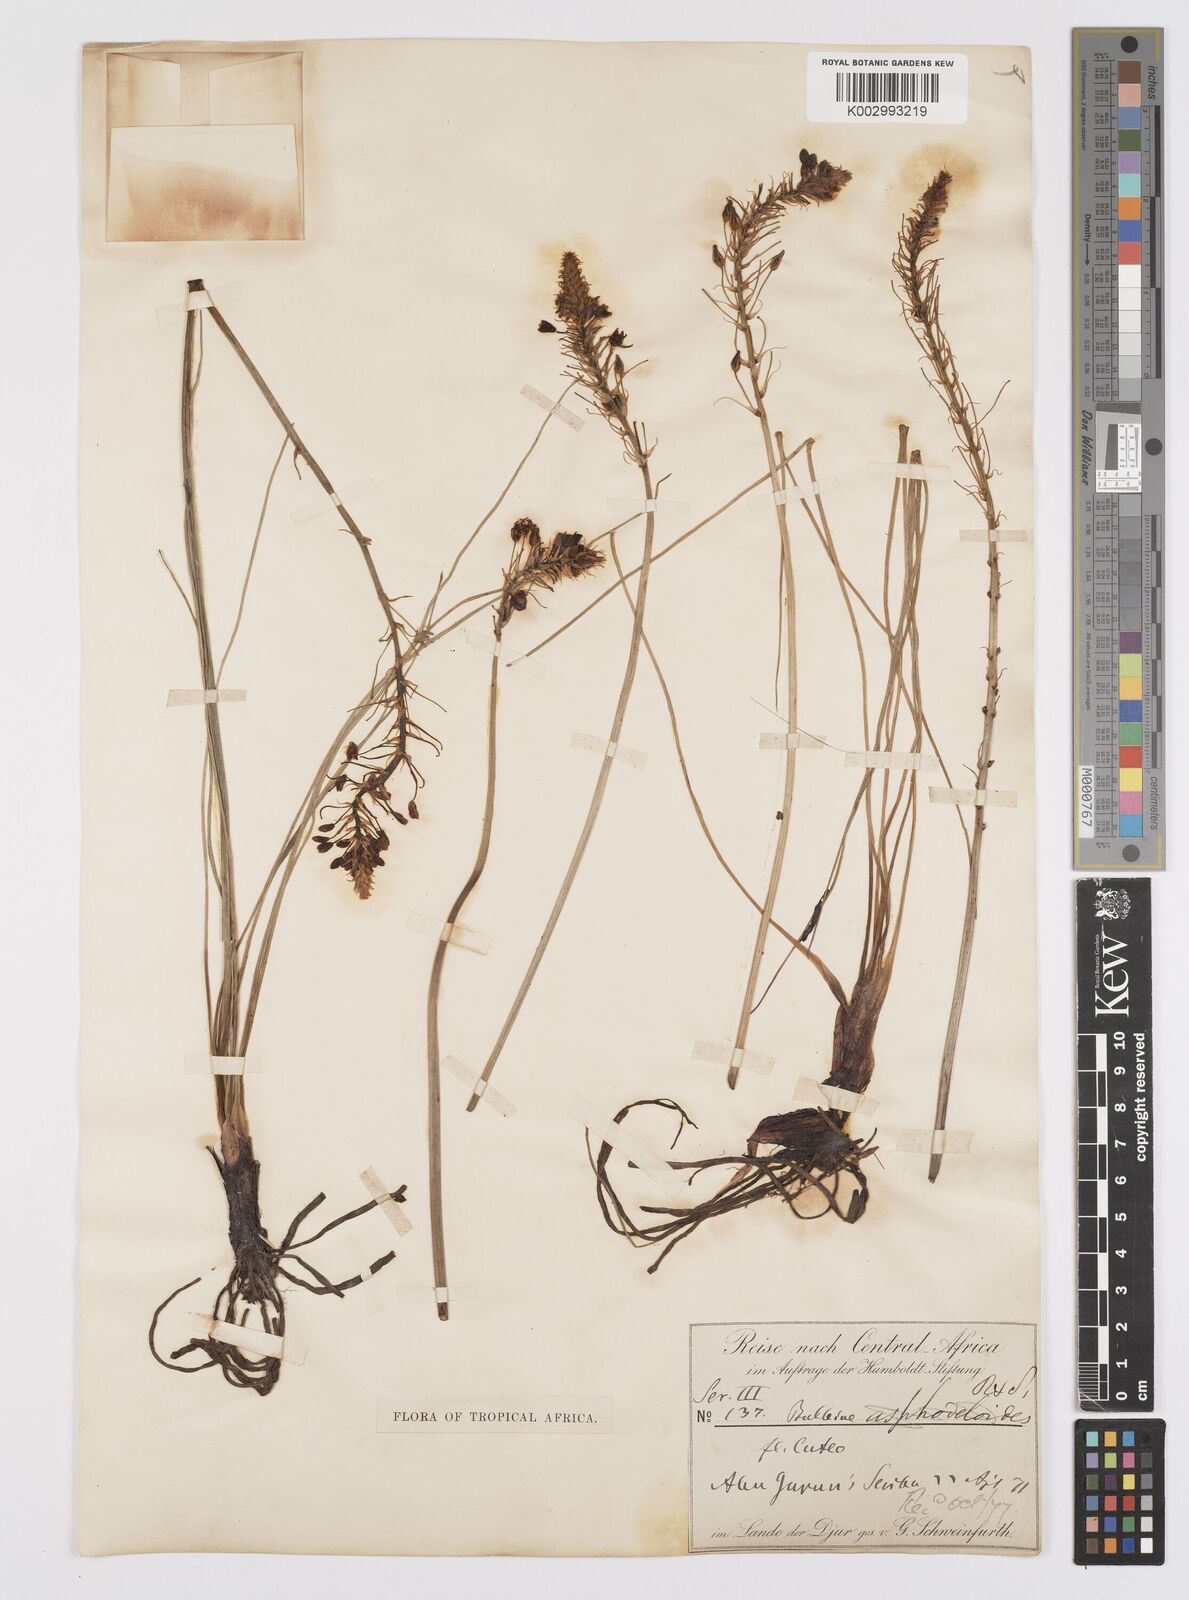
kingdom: Plantae
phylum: Tracheophyta
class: Liliopsida
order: Asparagales
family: Asphodelaceae
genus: Bulbine
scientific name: Bulbine abyssinica
